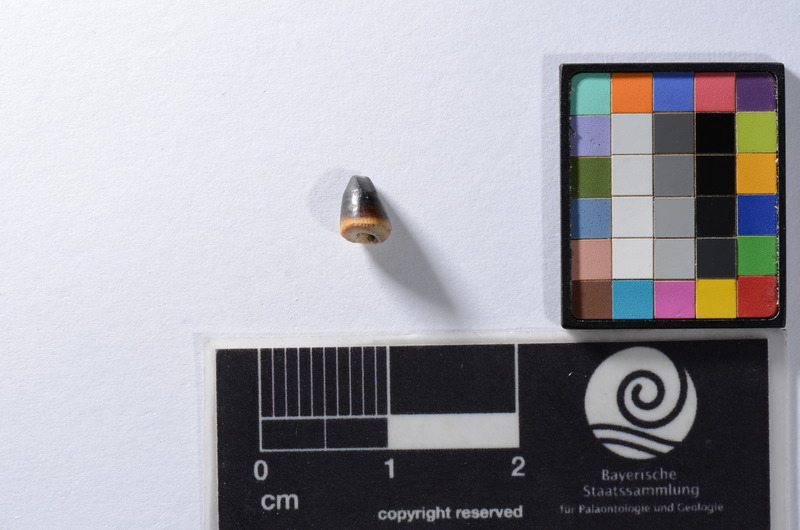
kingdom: Animalia
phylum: Chordata
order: Cypriniformes
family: Cyprinidae
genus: Capitodus
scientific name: Capitodus
